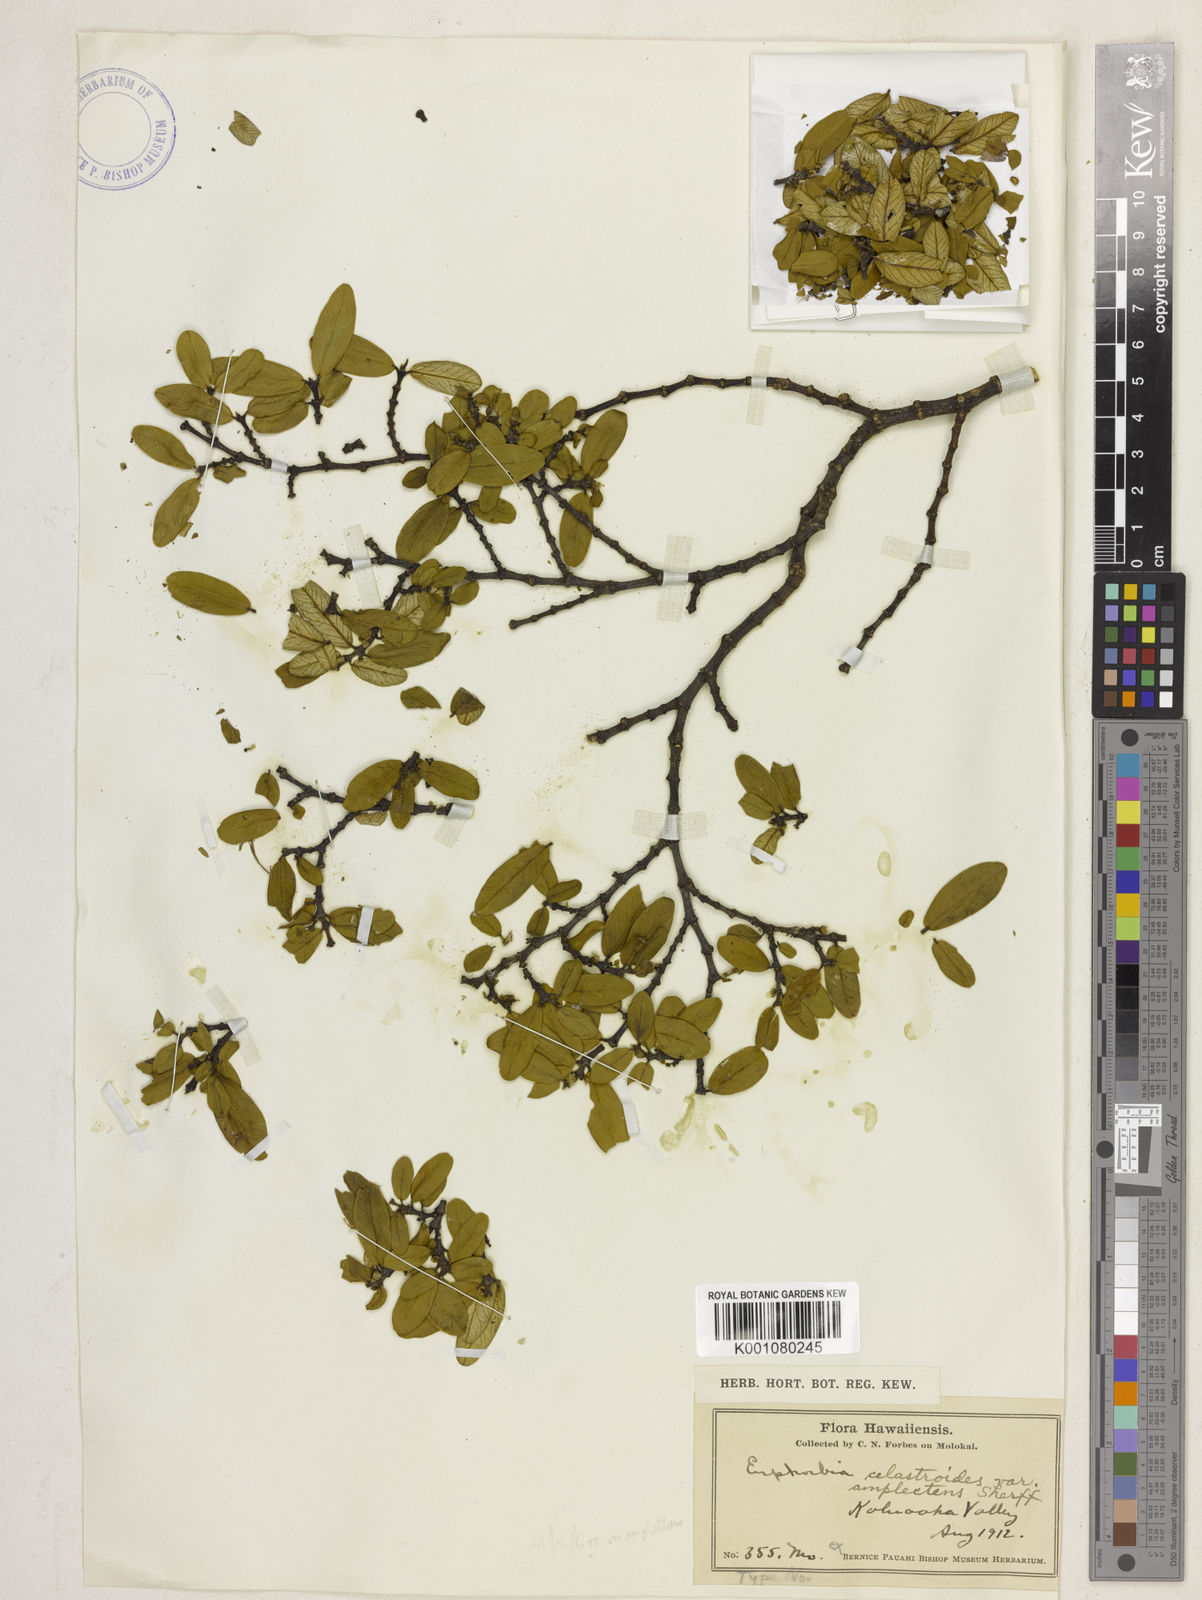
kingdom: Plantae
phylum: Tracheophyta
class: Magnoliopsida
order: Malpighiales
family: Euphorbiaceae
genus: Euphorbia
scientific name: Euphorbia celastroides
